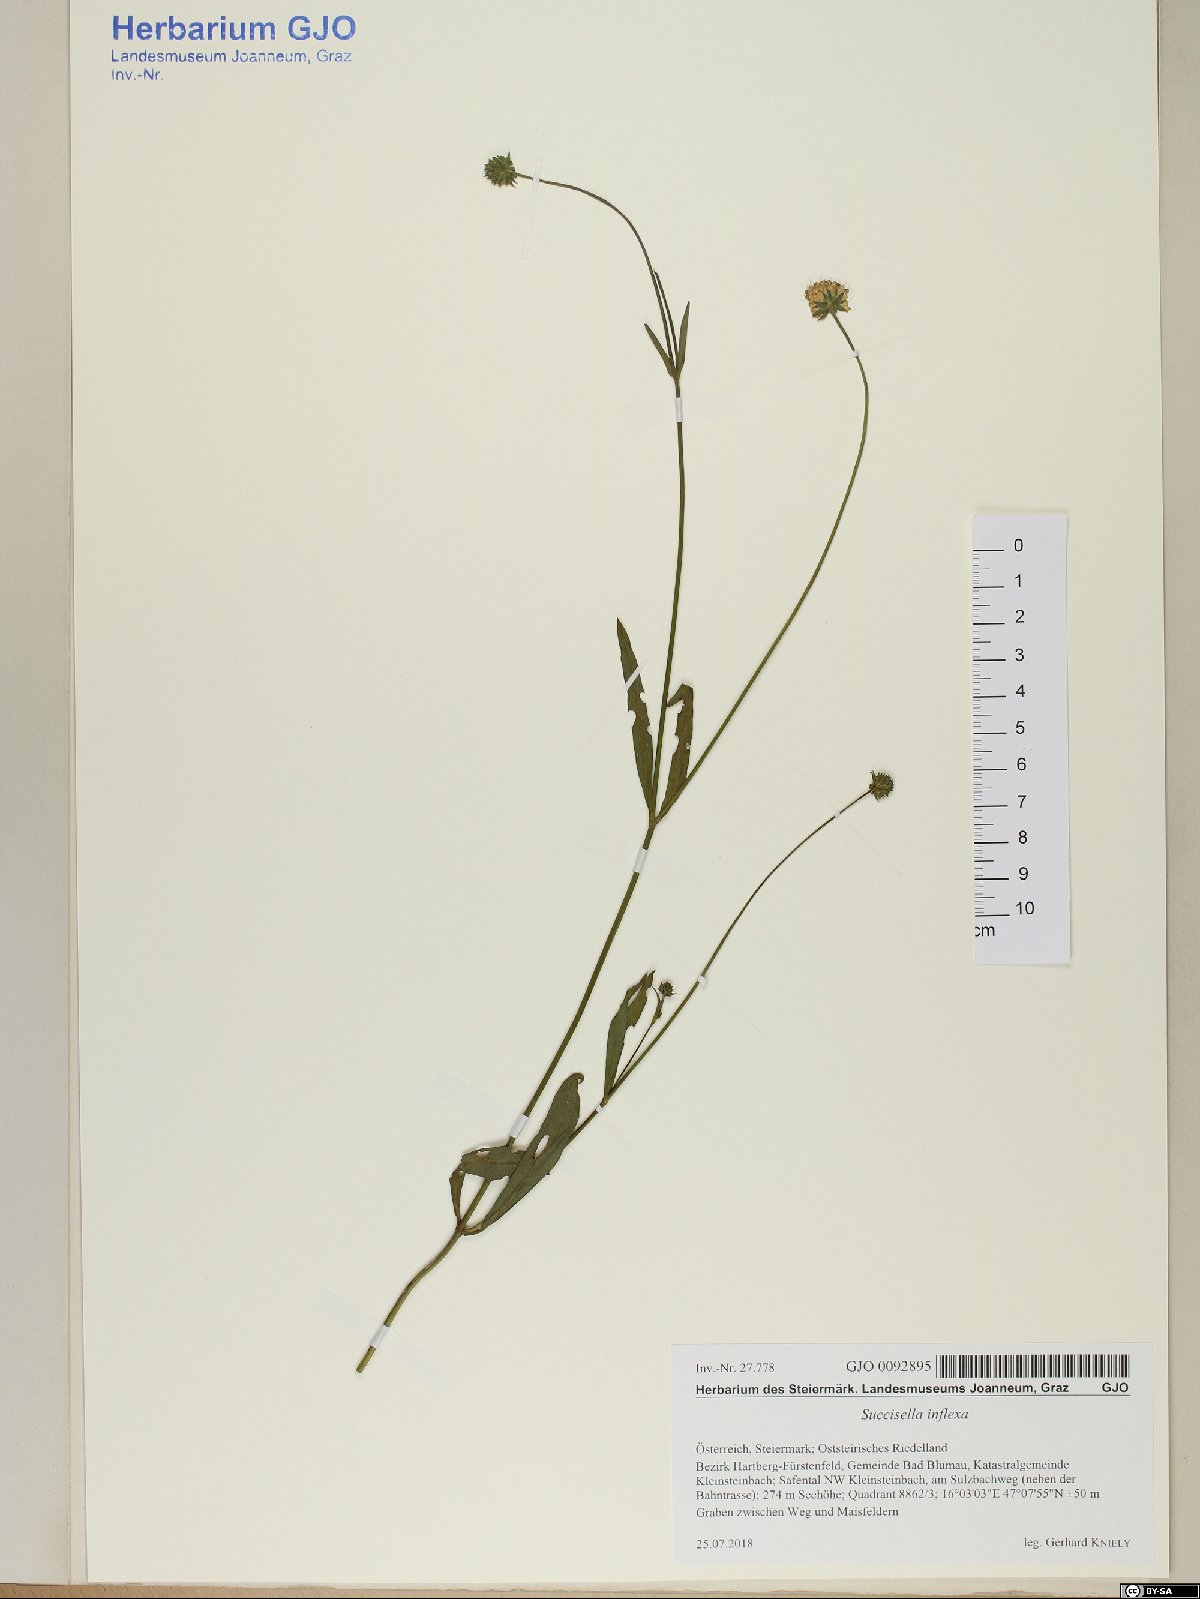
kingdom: Plantae
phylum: Tracheophyta
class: Magnoliopsida
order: Dipsacales
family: Caprifoliaceae
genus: Succisella
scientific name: Succisella inflexa
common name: Southern succisella
